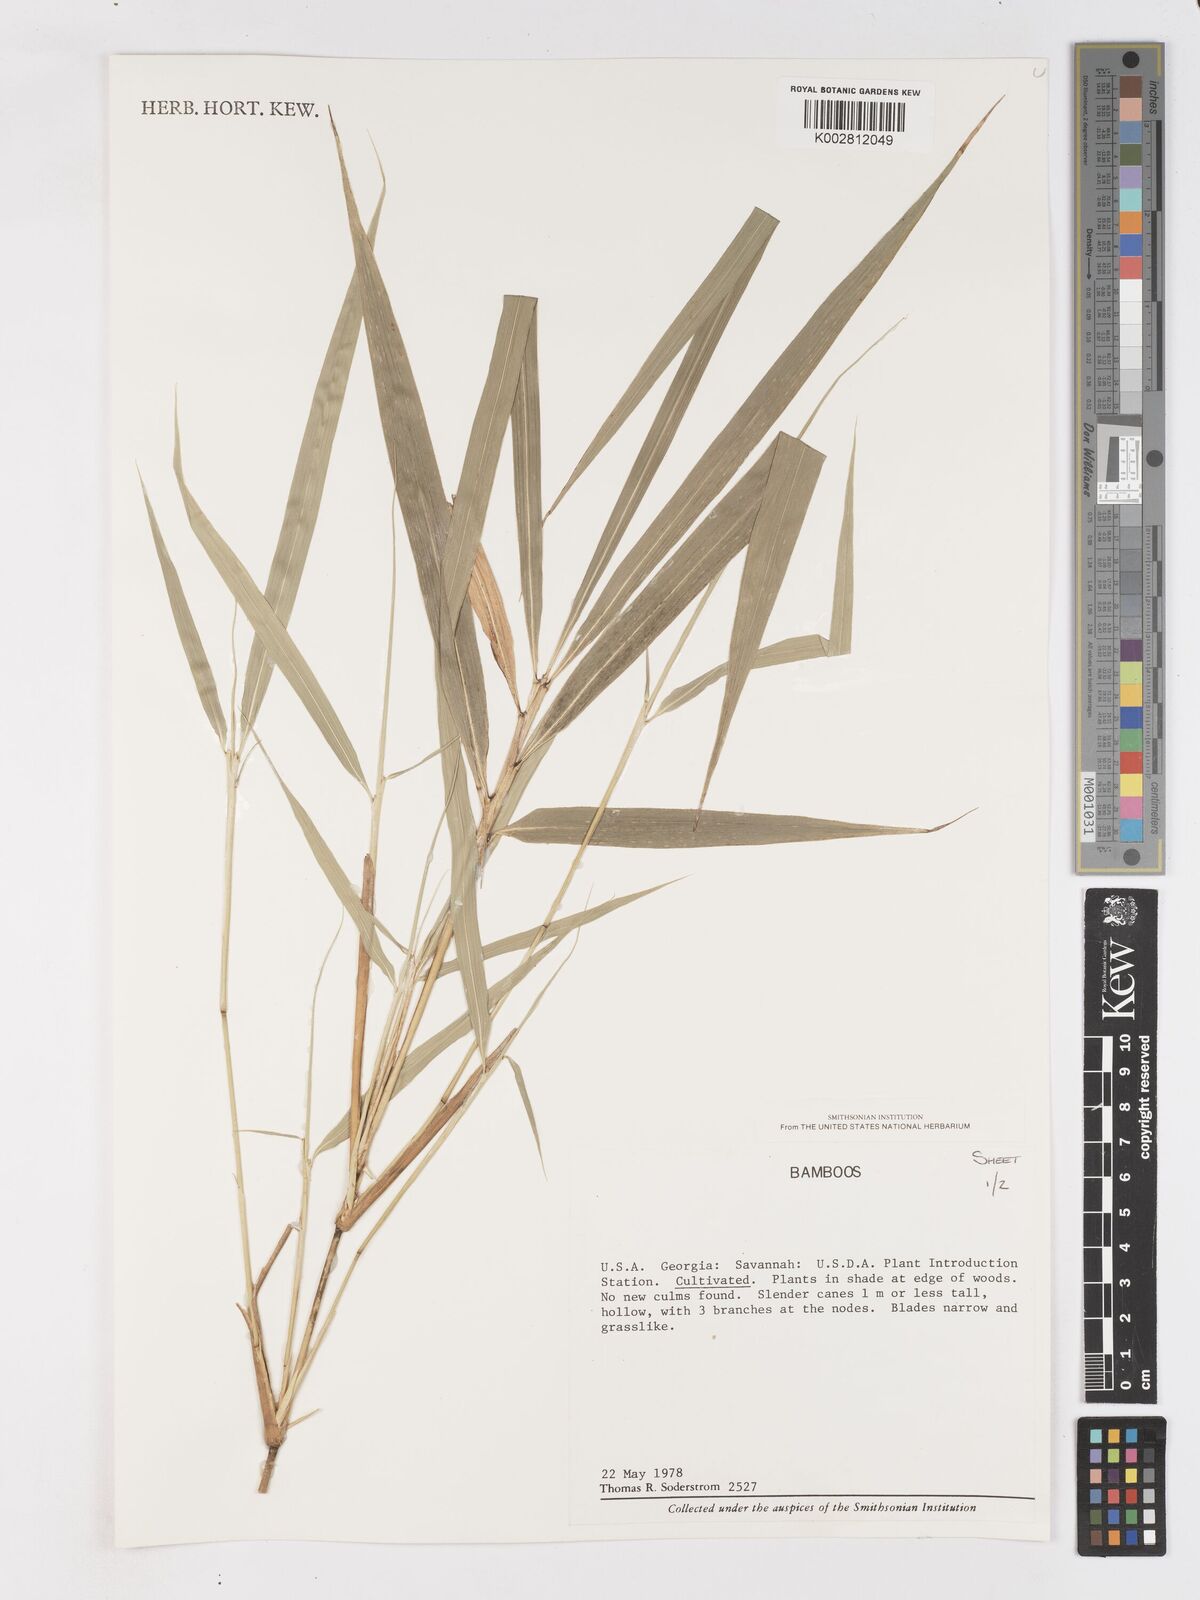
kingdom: Plantae
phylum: Tracheophyta
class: Liliopsida
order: Poales
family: Poaceae
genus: Pleioblastus
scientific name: Pleioblastus simonii
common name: Simon bamboo
